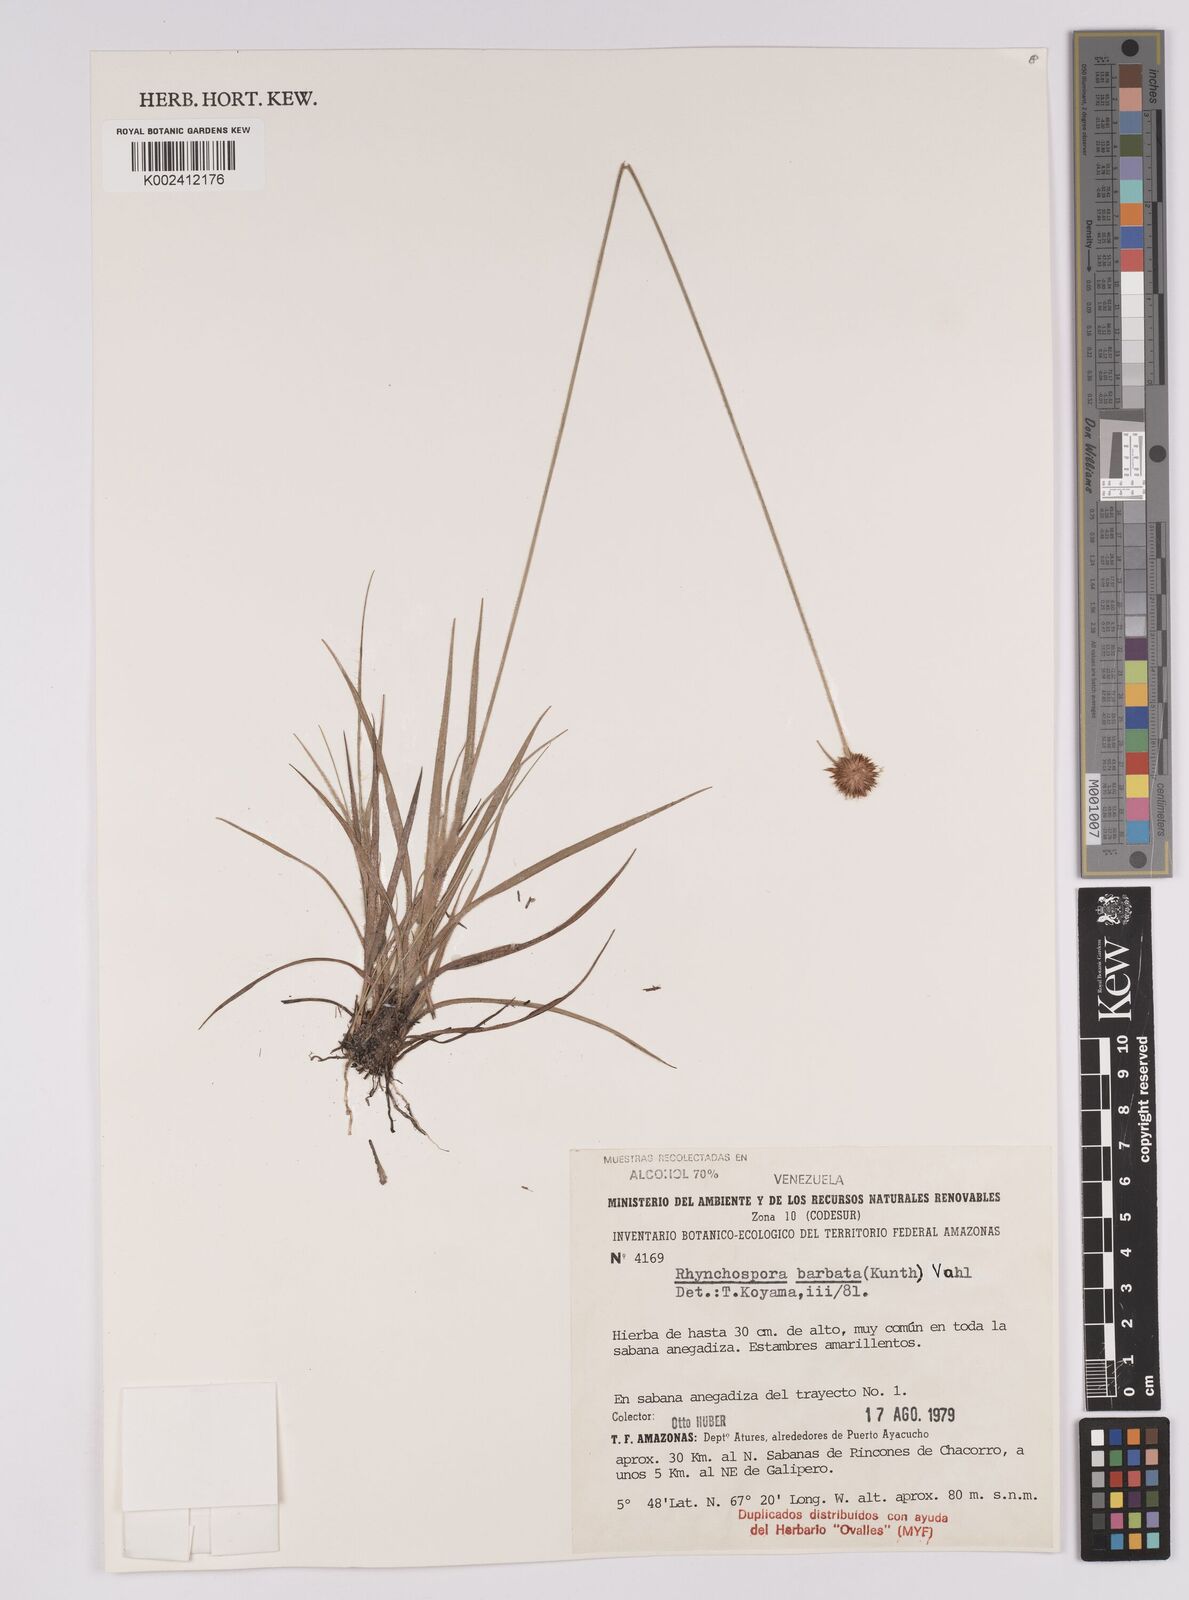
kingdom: Plantae
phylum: Tracheophyta
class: Liliopsida
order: Poales
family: Cyperaceae
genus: Rhynchospora
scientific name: Rhynchospora barbata
